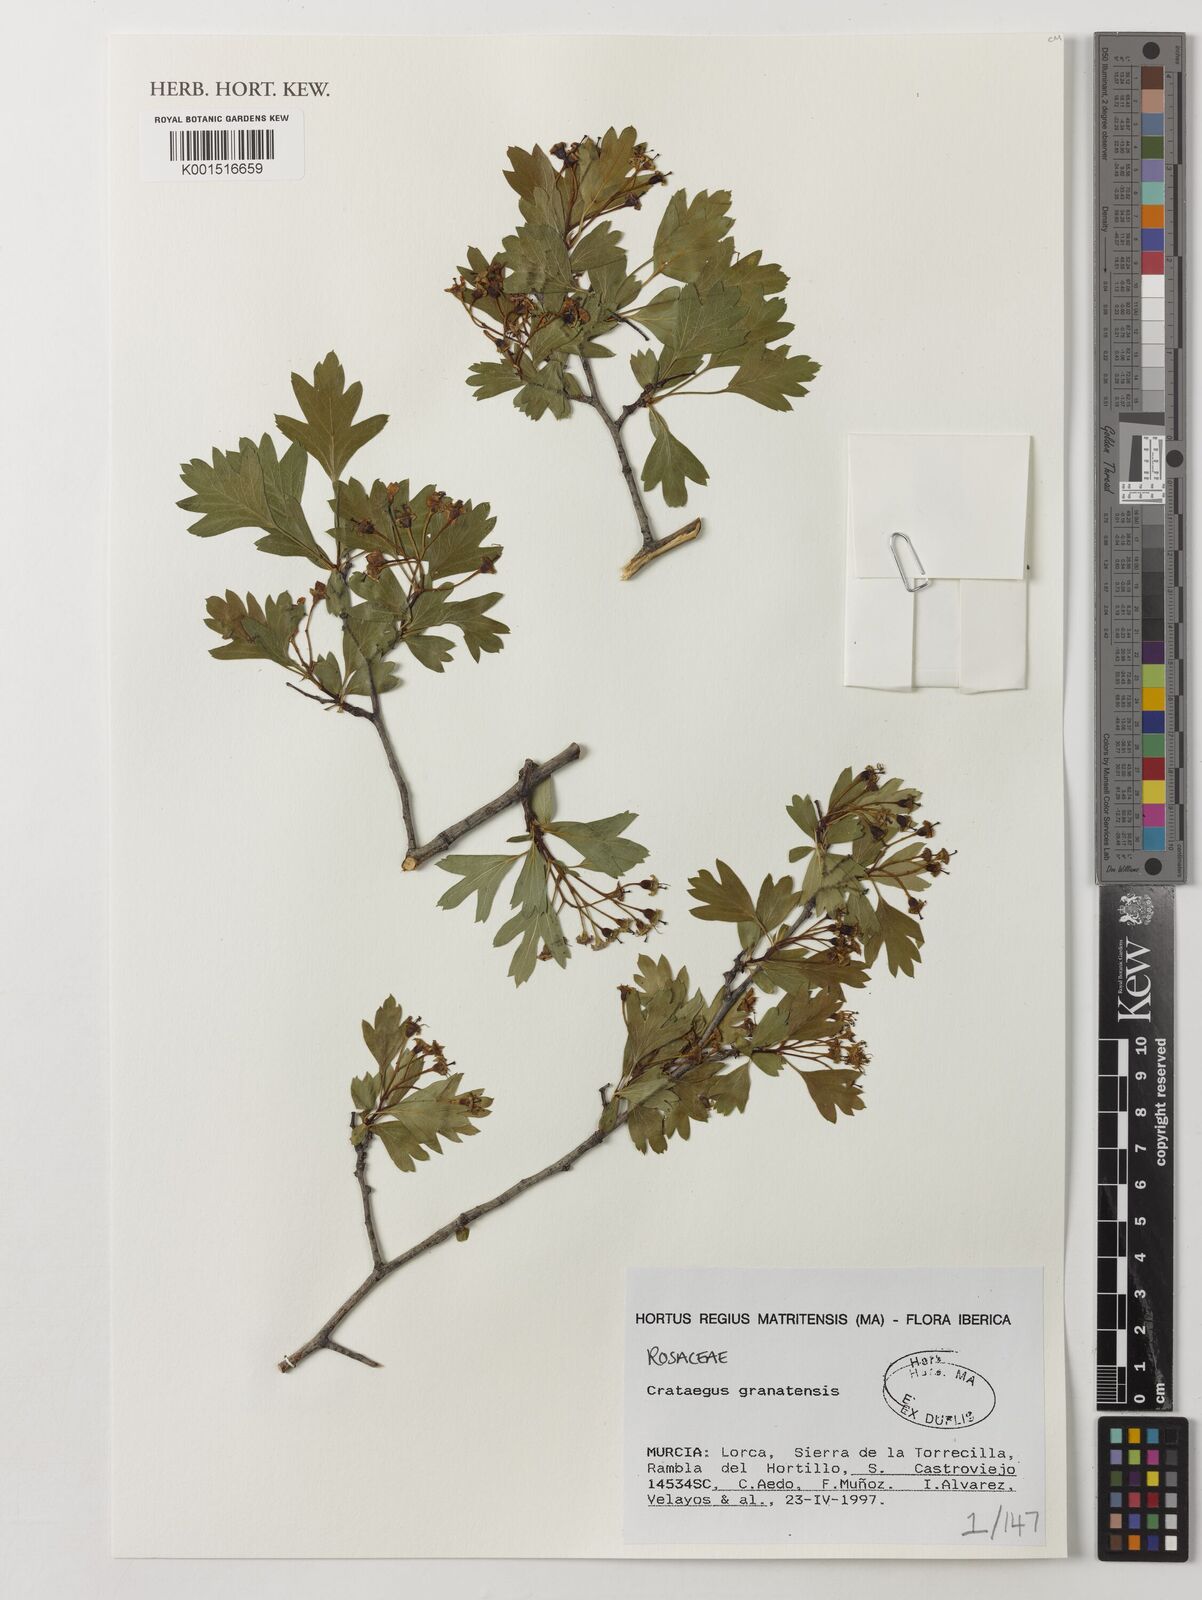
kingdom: Plantae
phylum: Tracheophyta
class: Magnoliopsida
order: Rosales
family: Rosaceae
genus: Crataegus
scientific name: Crataegus granatensis
